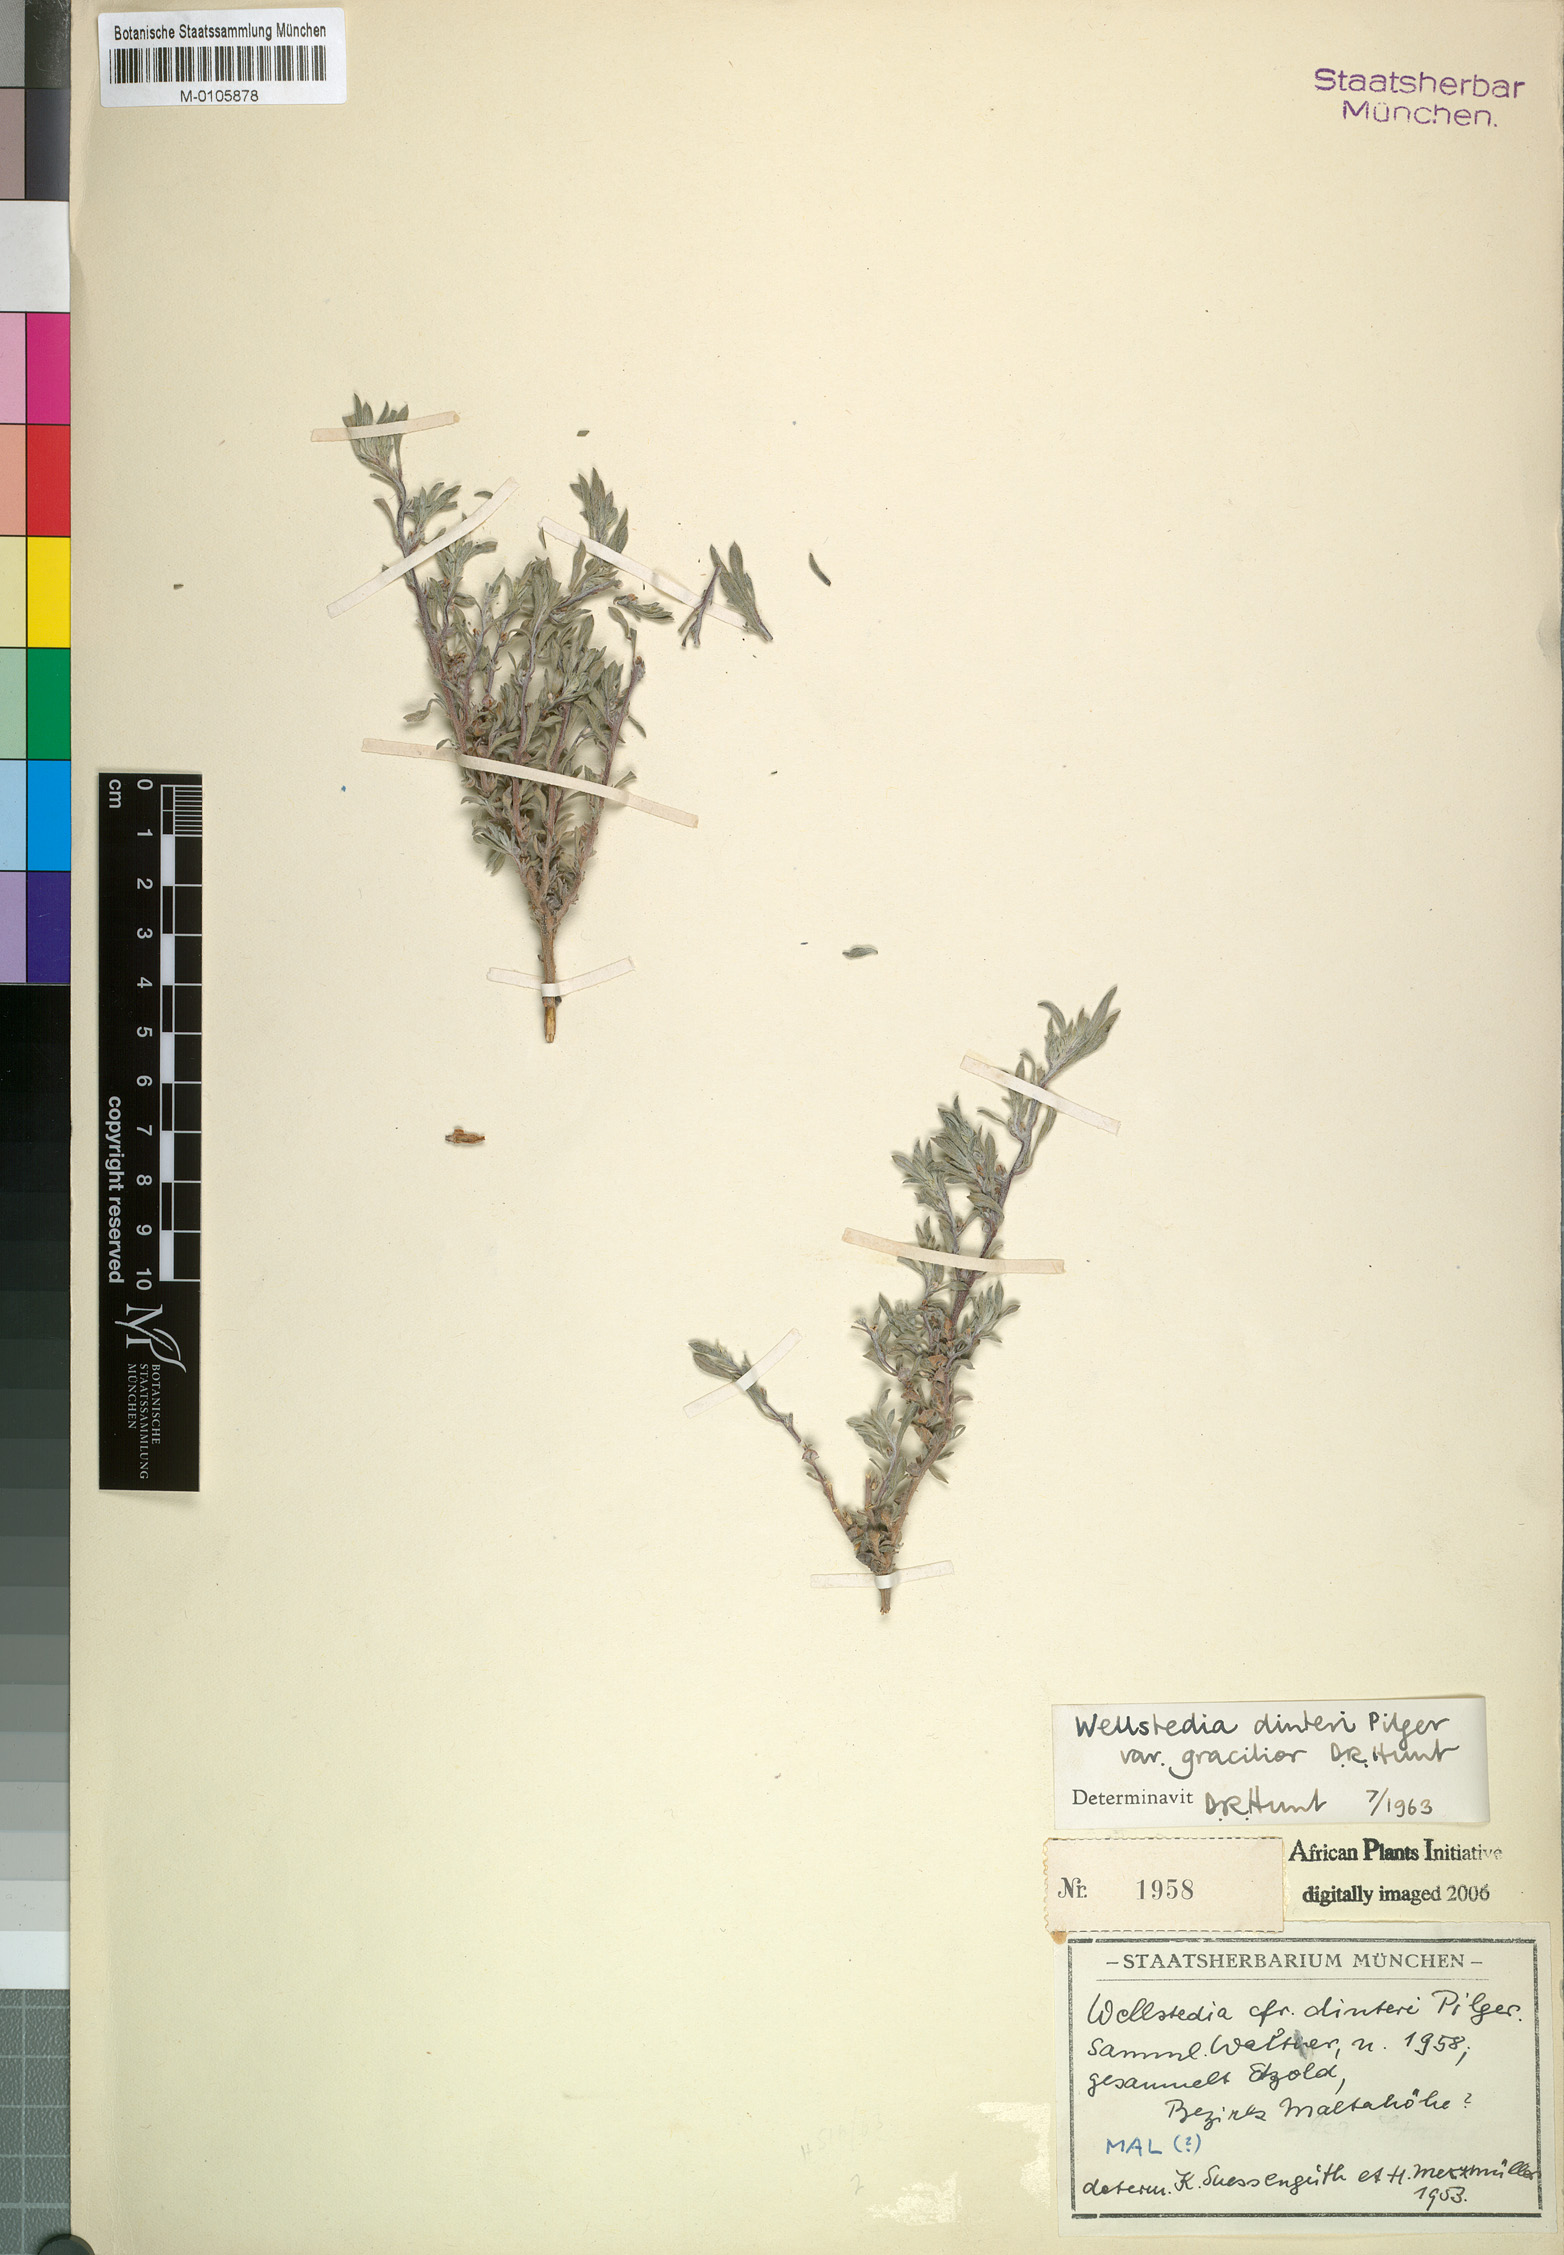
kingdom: Plantae
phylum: Tracheophyta
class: Magnoliopsida
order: Boraginales
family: Wellstediaceae
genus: Wellstedia
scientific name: Wellstedia dinteri
